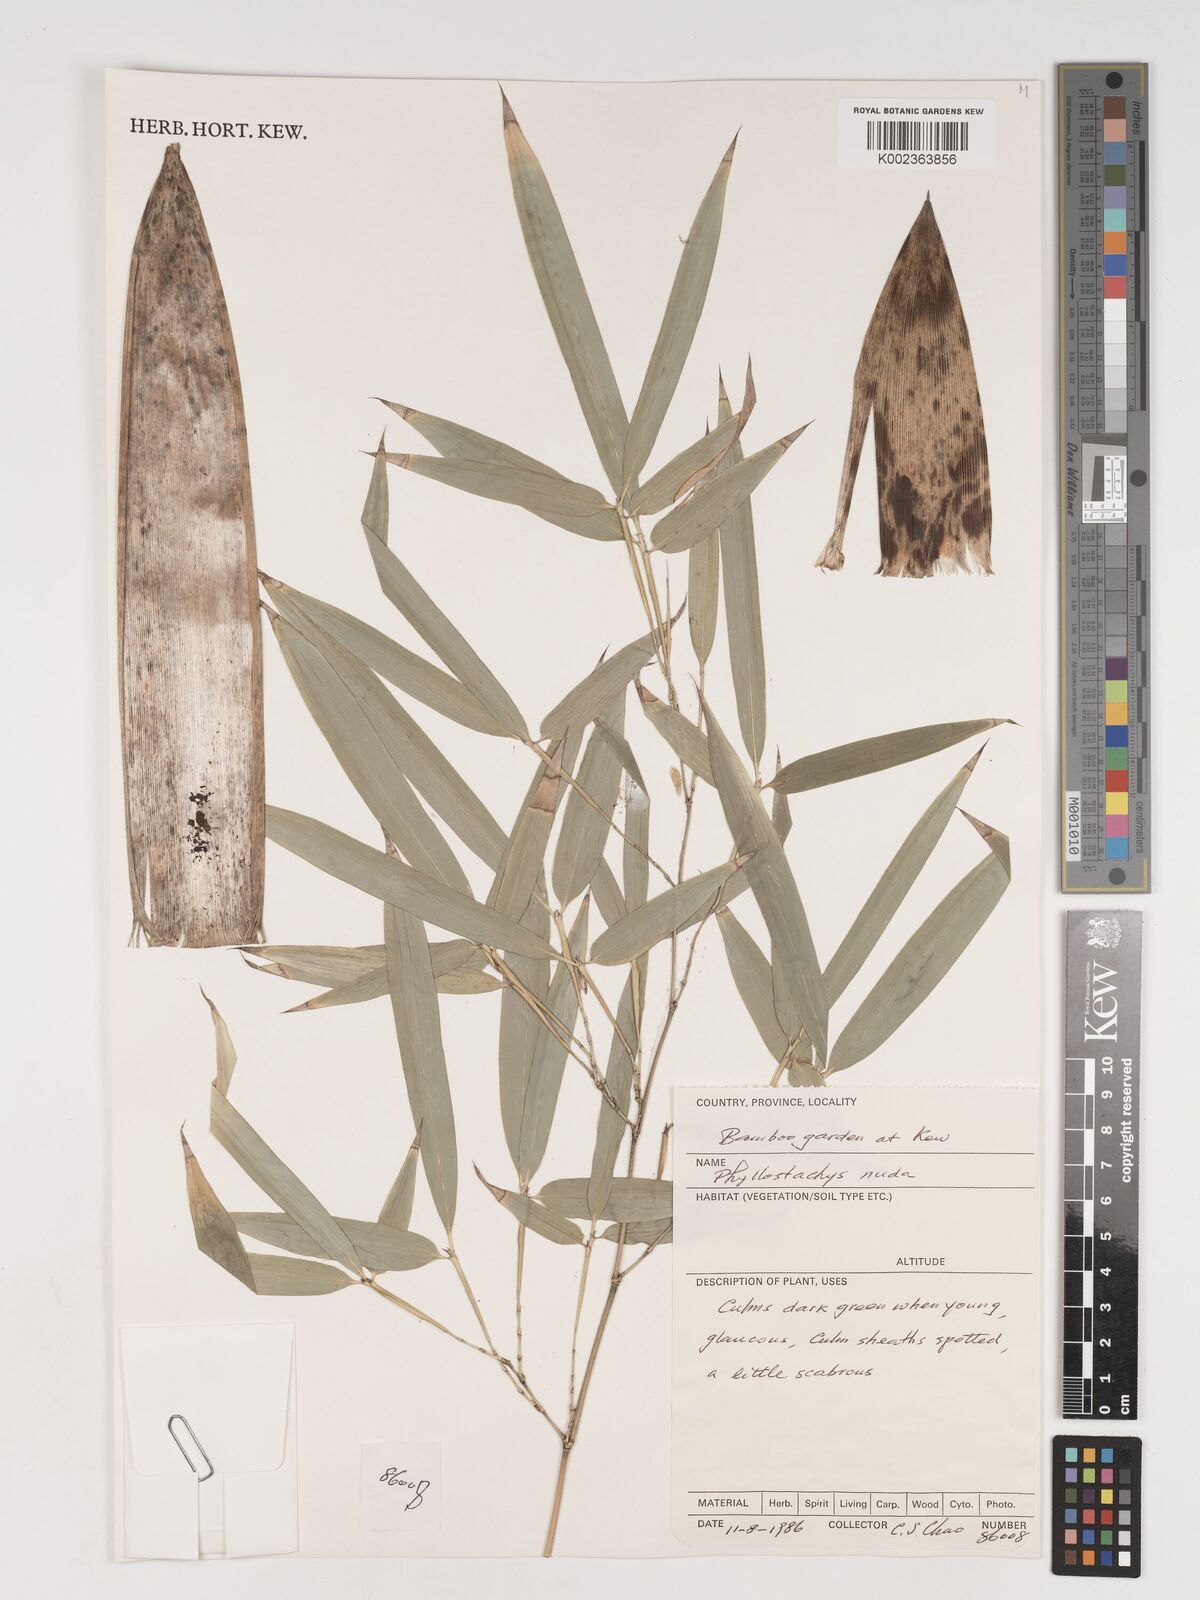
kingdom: Plantae
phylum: Tracheophyta
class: Liliopsida
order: Poales
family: Poaceae
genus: Phyllostachys
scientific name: Phyllostachys bissetii
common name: Bamboo
